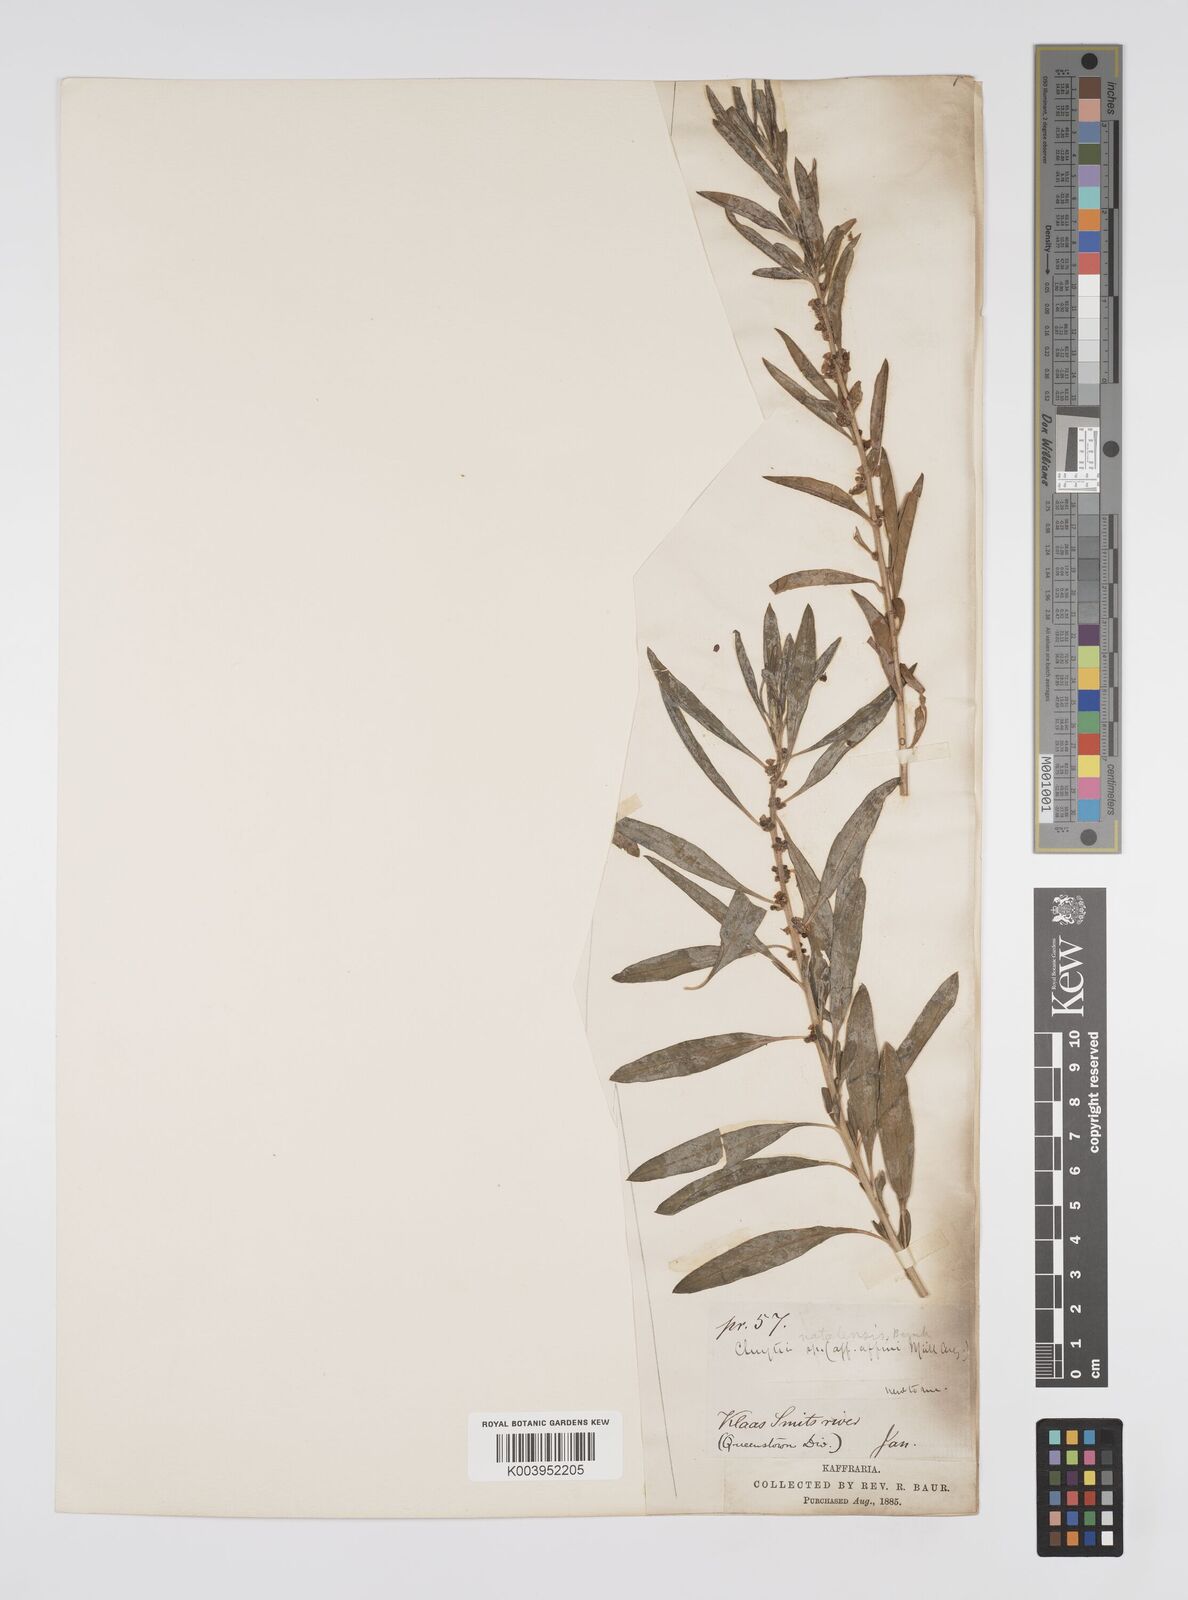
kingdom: Plantae
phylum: Tracheophyta
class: Magnoliopsida
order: Malpighiales
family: Peraceae
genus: Clutia
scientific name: Clutia natalensis
